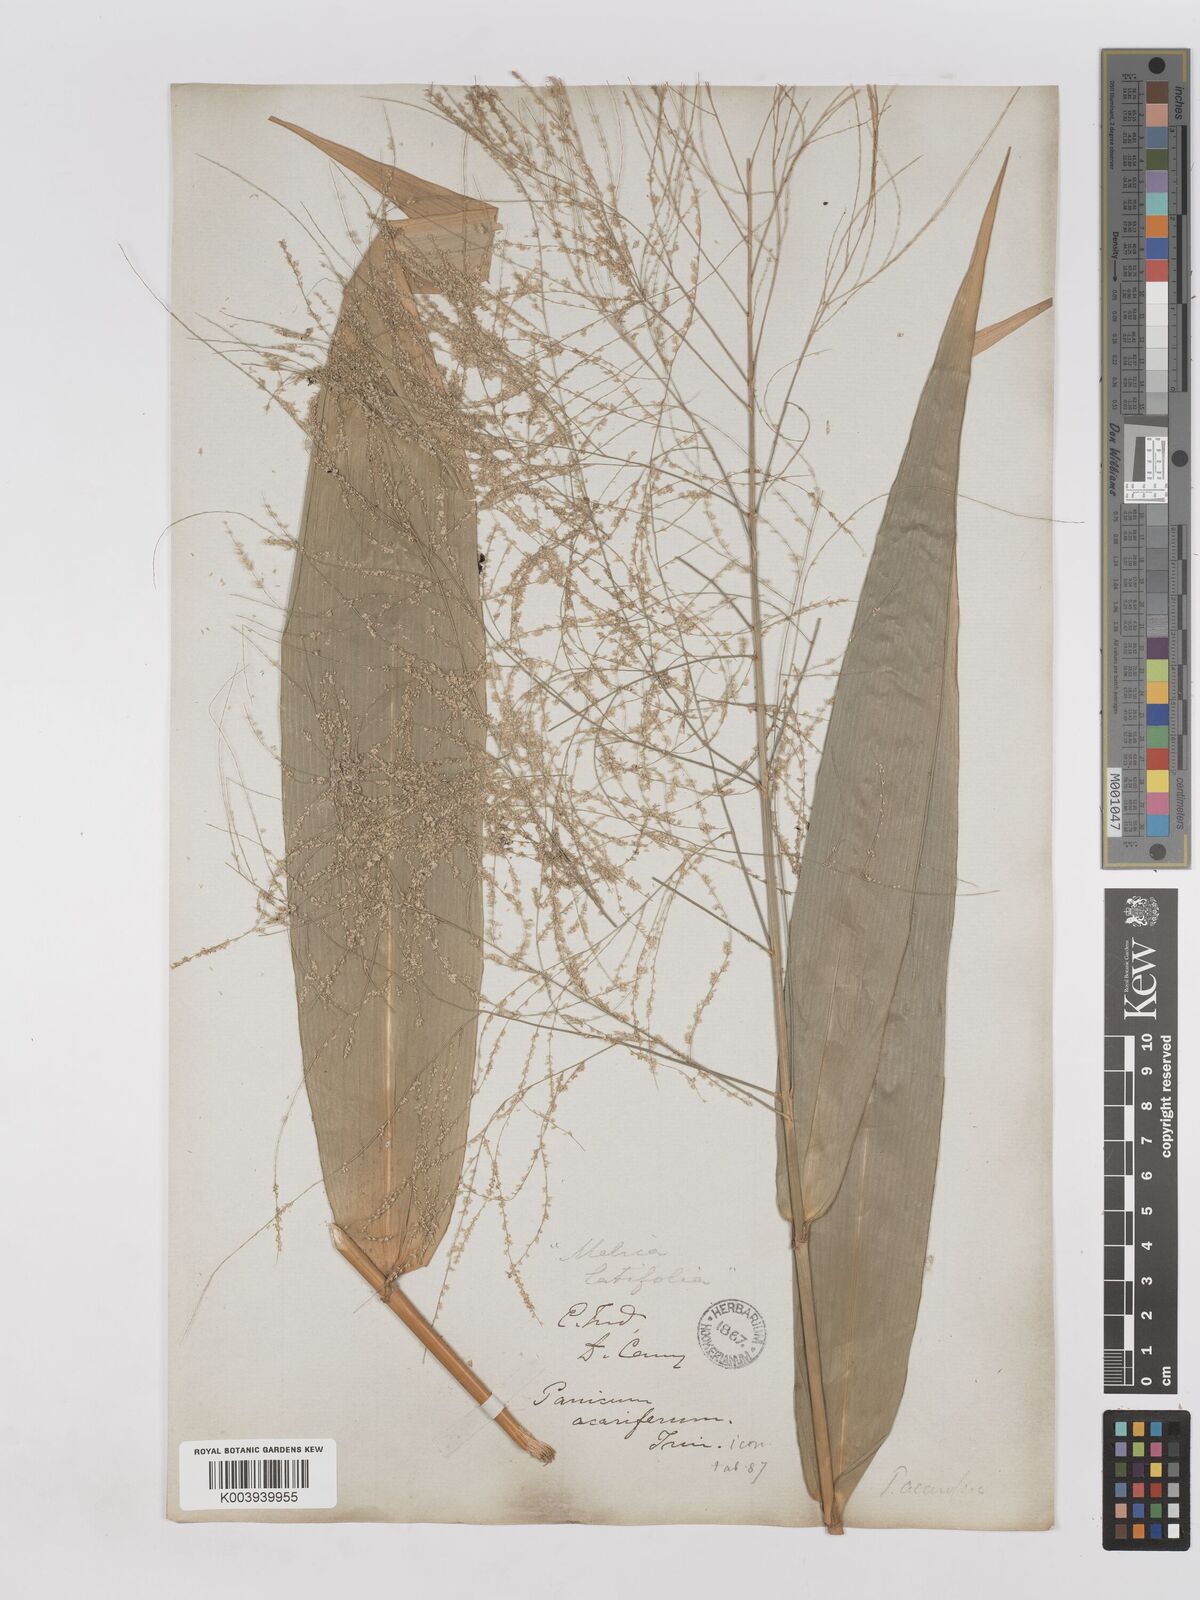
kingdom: Plantae
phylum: Tracheophyta
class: Liliopsida
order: Poales
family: Poaceae
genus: Thysanolaena
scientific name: Thysanolaena latifolia
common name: Tiger grass
